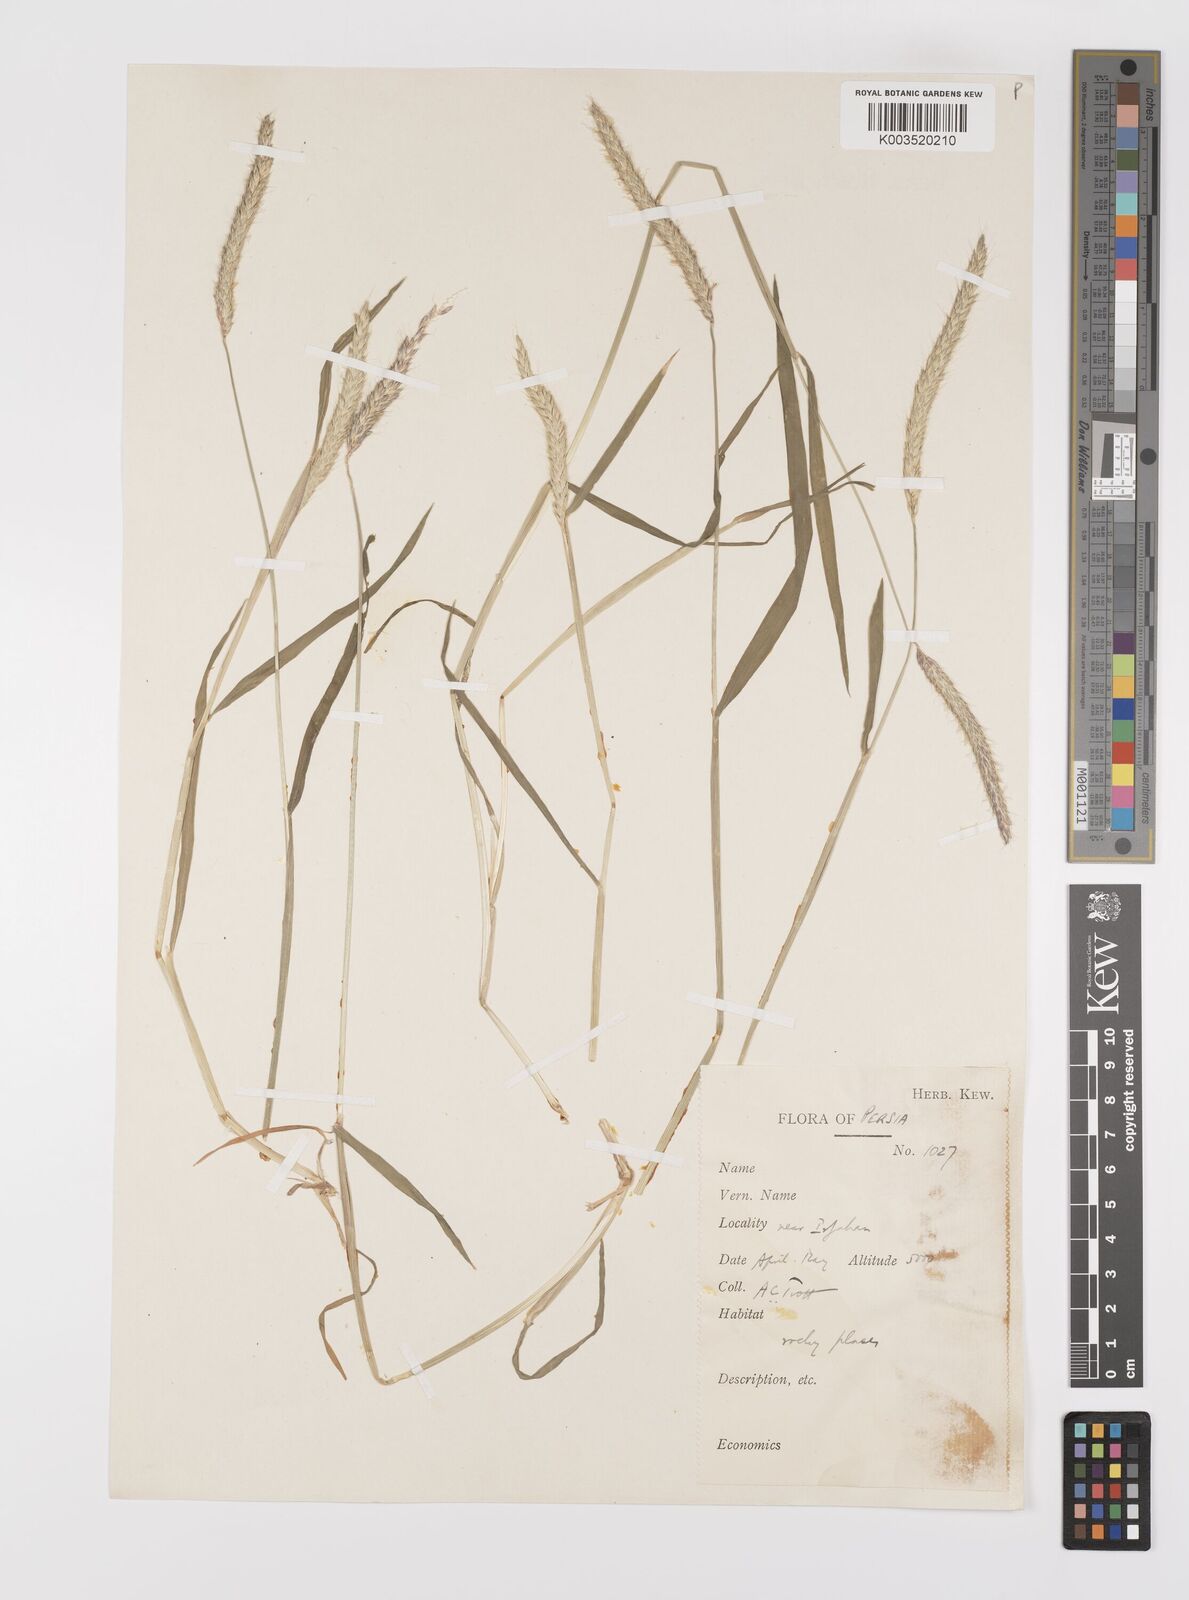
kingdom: Plantae
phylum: Tracheophyta
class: Liliopsida
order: Poales
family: Poaceae
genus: Alopecurus
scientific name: Alopecurus myosuroides
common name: Black-grass
